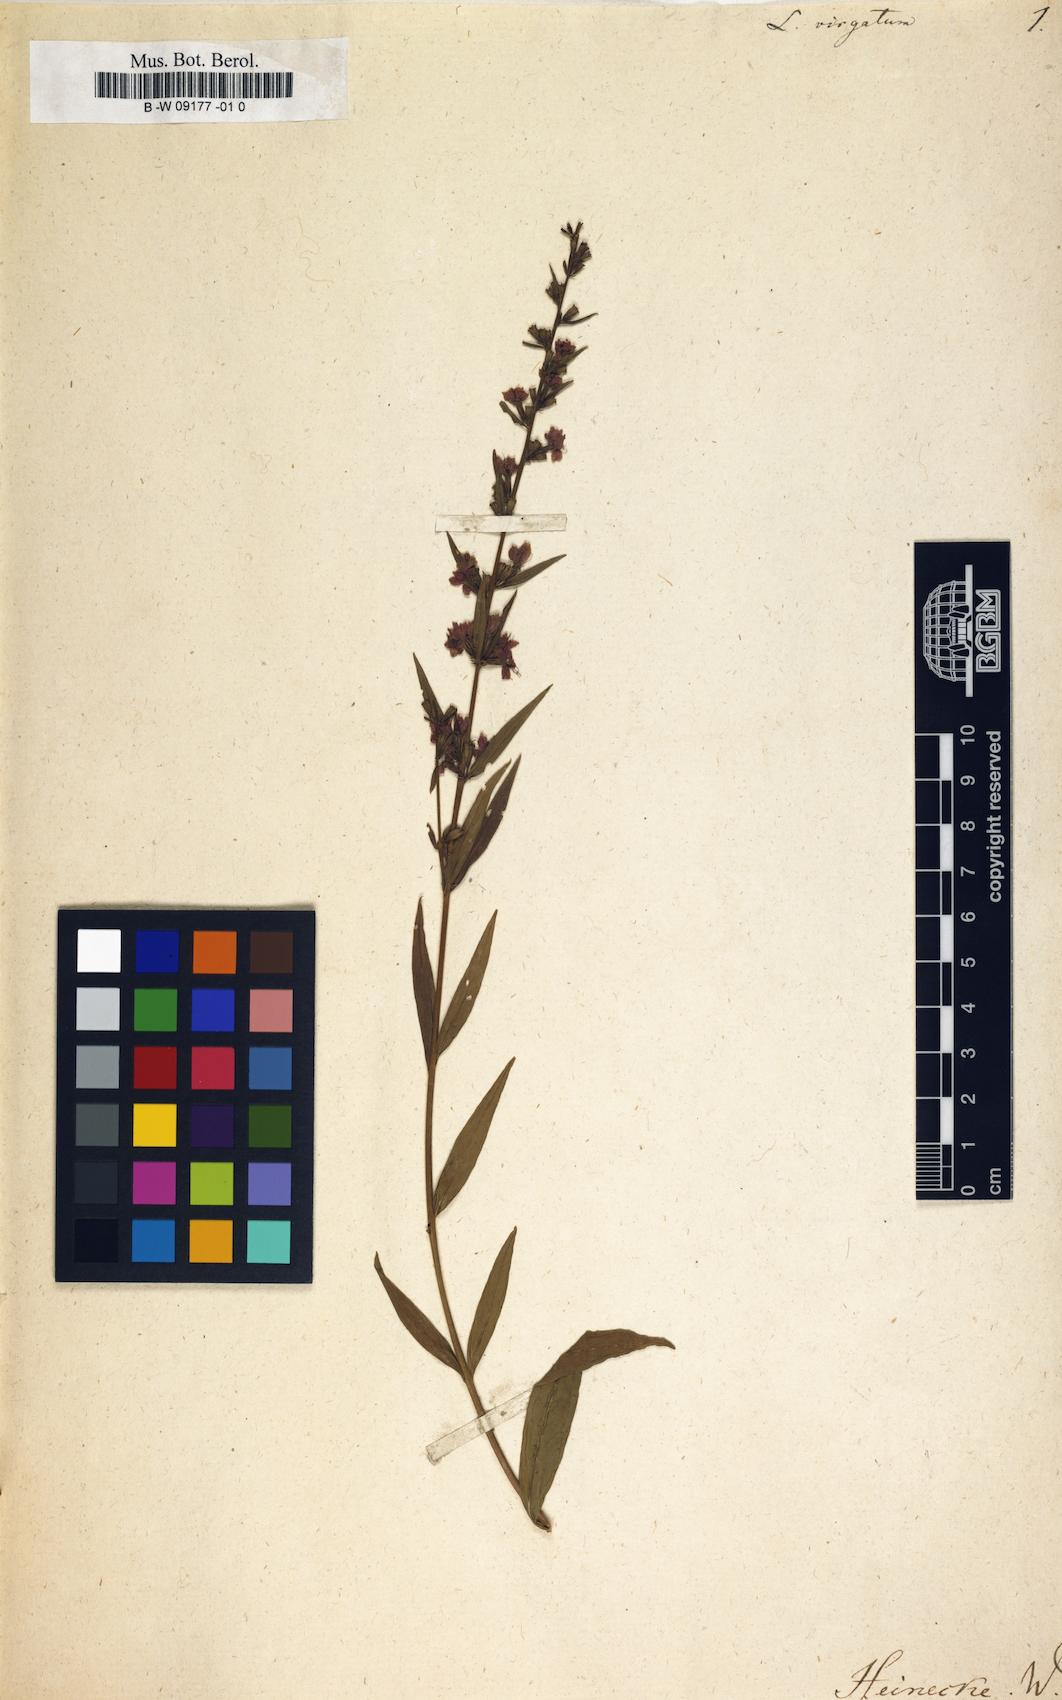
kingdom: Plantae
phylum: Tracheophyta
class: Magnoliopsida
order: Myrtales
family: Lythraceae
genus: Lythrum
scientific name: Lythrum virgatum
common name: European wand loosestrife
